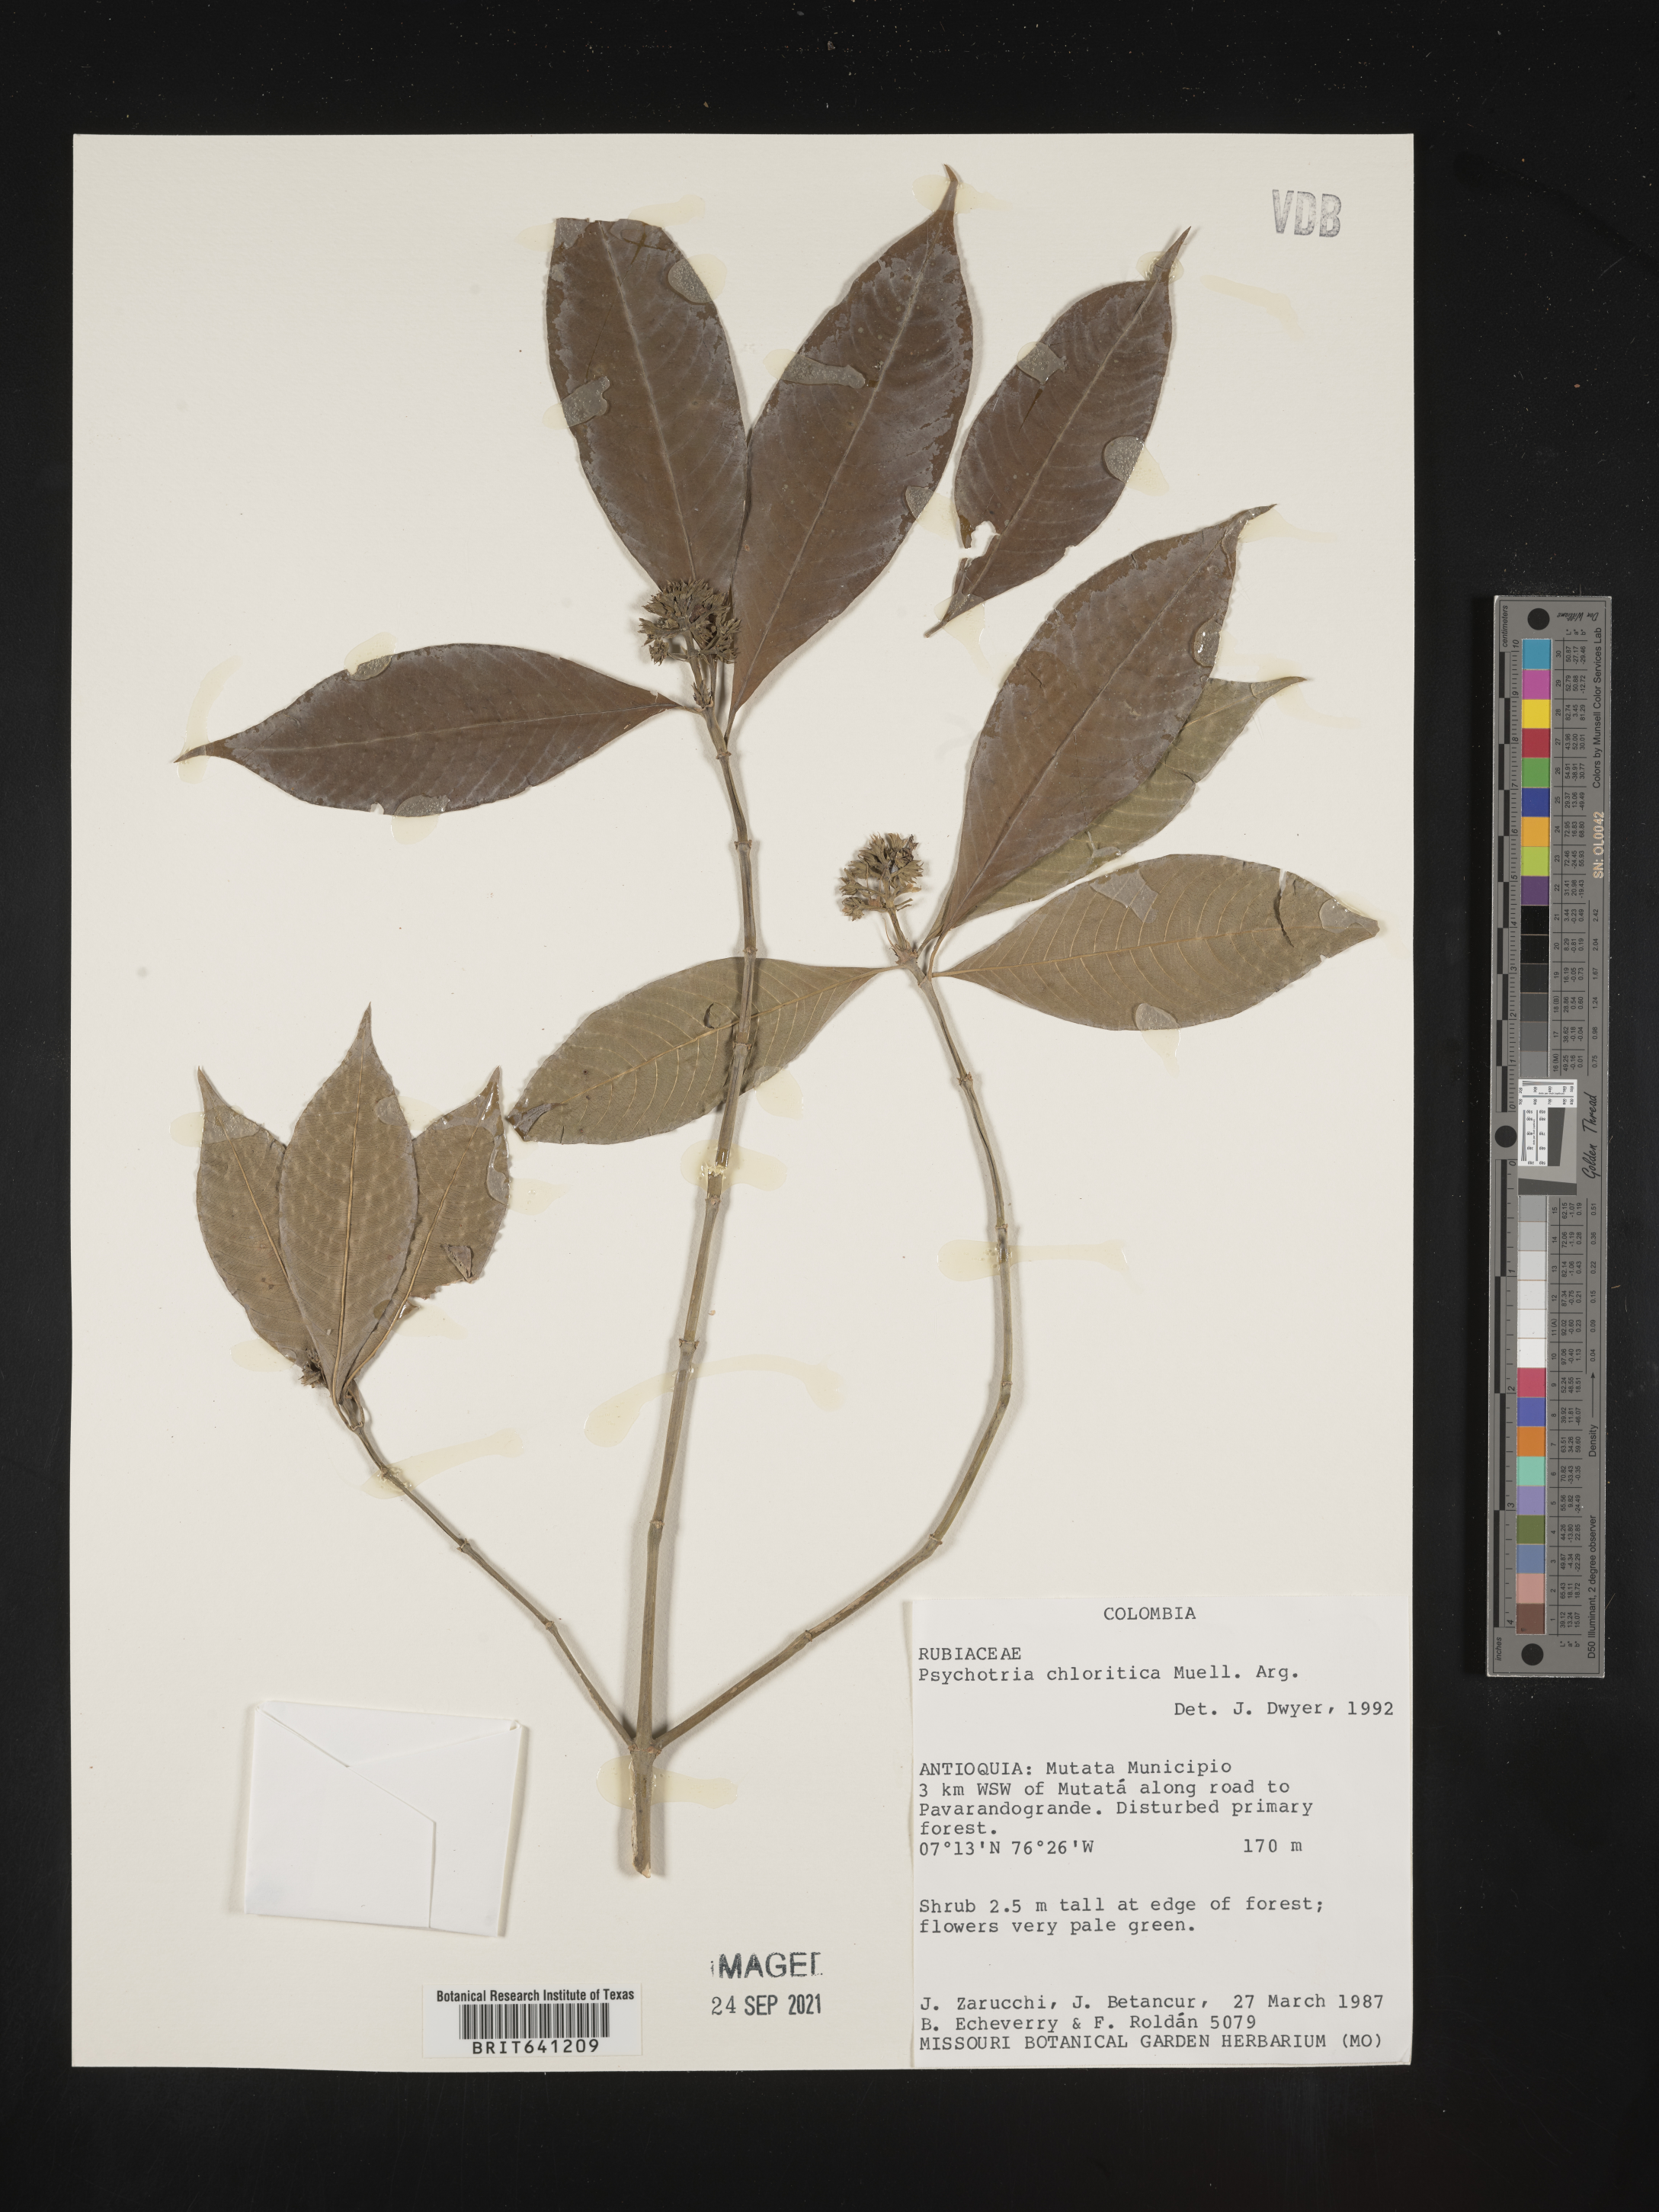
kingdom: Plantae
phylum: Tracheophyta
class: Magnoliopsida
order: Gentianales
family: Rubiaceae
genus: Psychotria
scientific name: Psychotria
